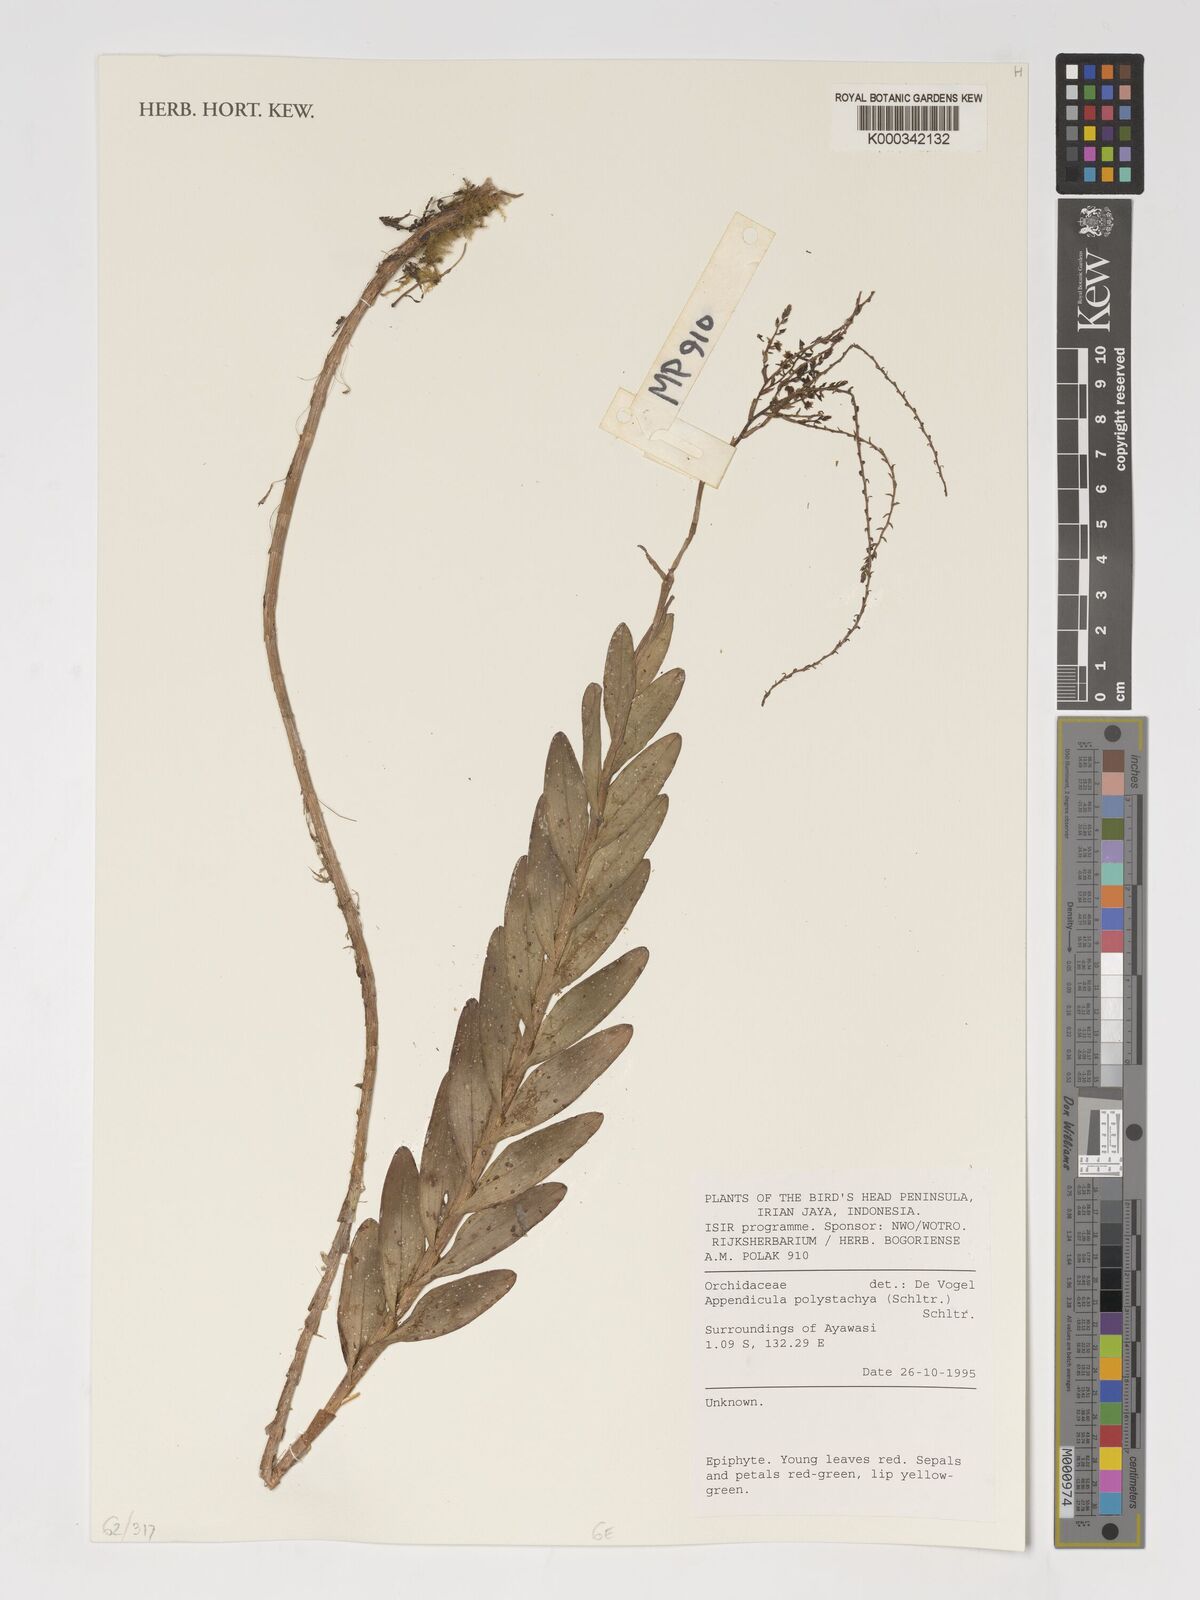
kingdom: Plantae
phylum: Tracheophyta
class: Liliopsida
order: Asparagales
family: Orchidaceae
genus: Appendicula
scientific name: Appendicula polystachya
